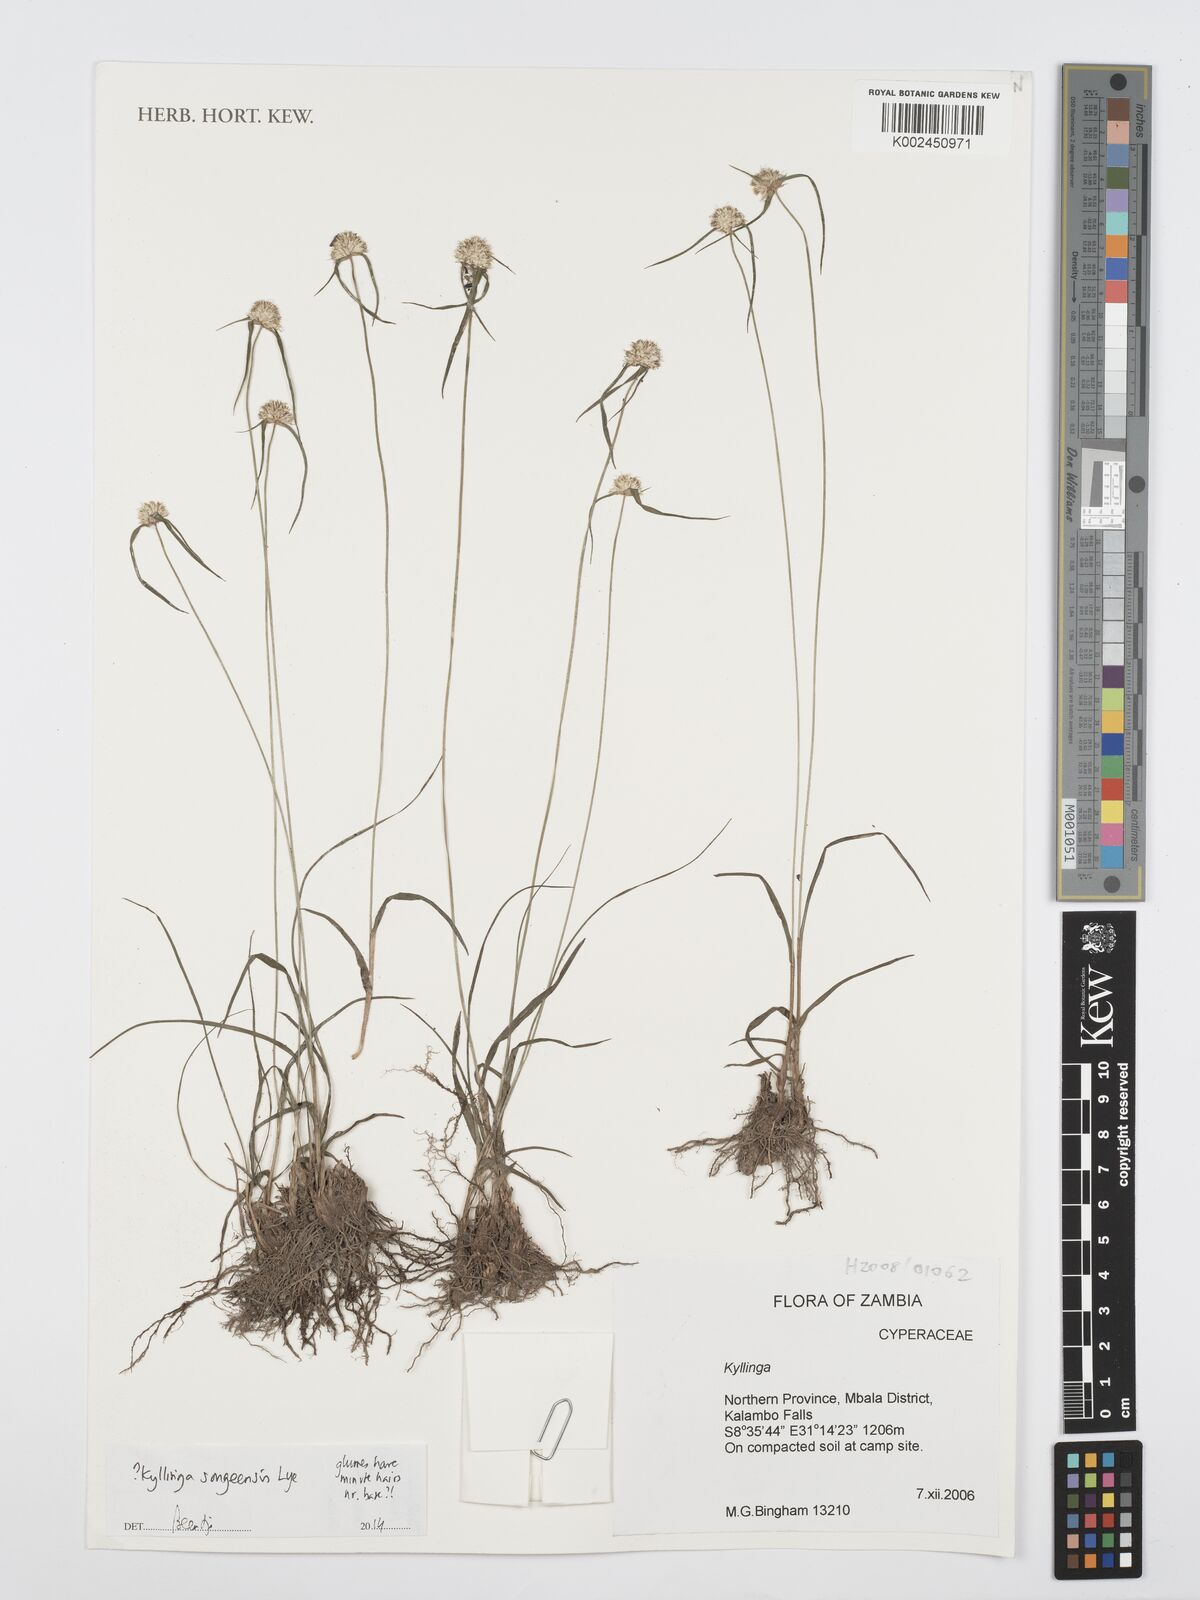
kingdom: Plantae
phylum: Tracheophyta
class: Liliopsida
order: Poales
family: Cyperaceae
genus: Cyperus
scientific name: Cyperus songeensis
